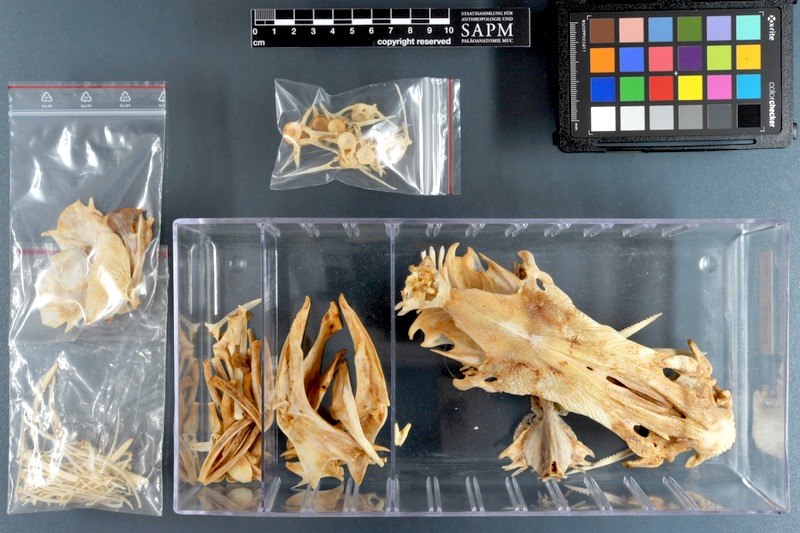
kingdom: Animalia
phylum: Chordata
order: Siluriformes
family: Ariidae
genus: Netuma
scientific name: Netuma thalassina
